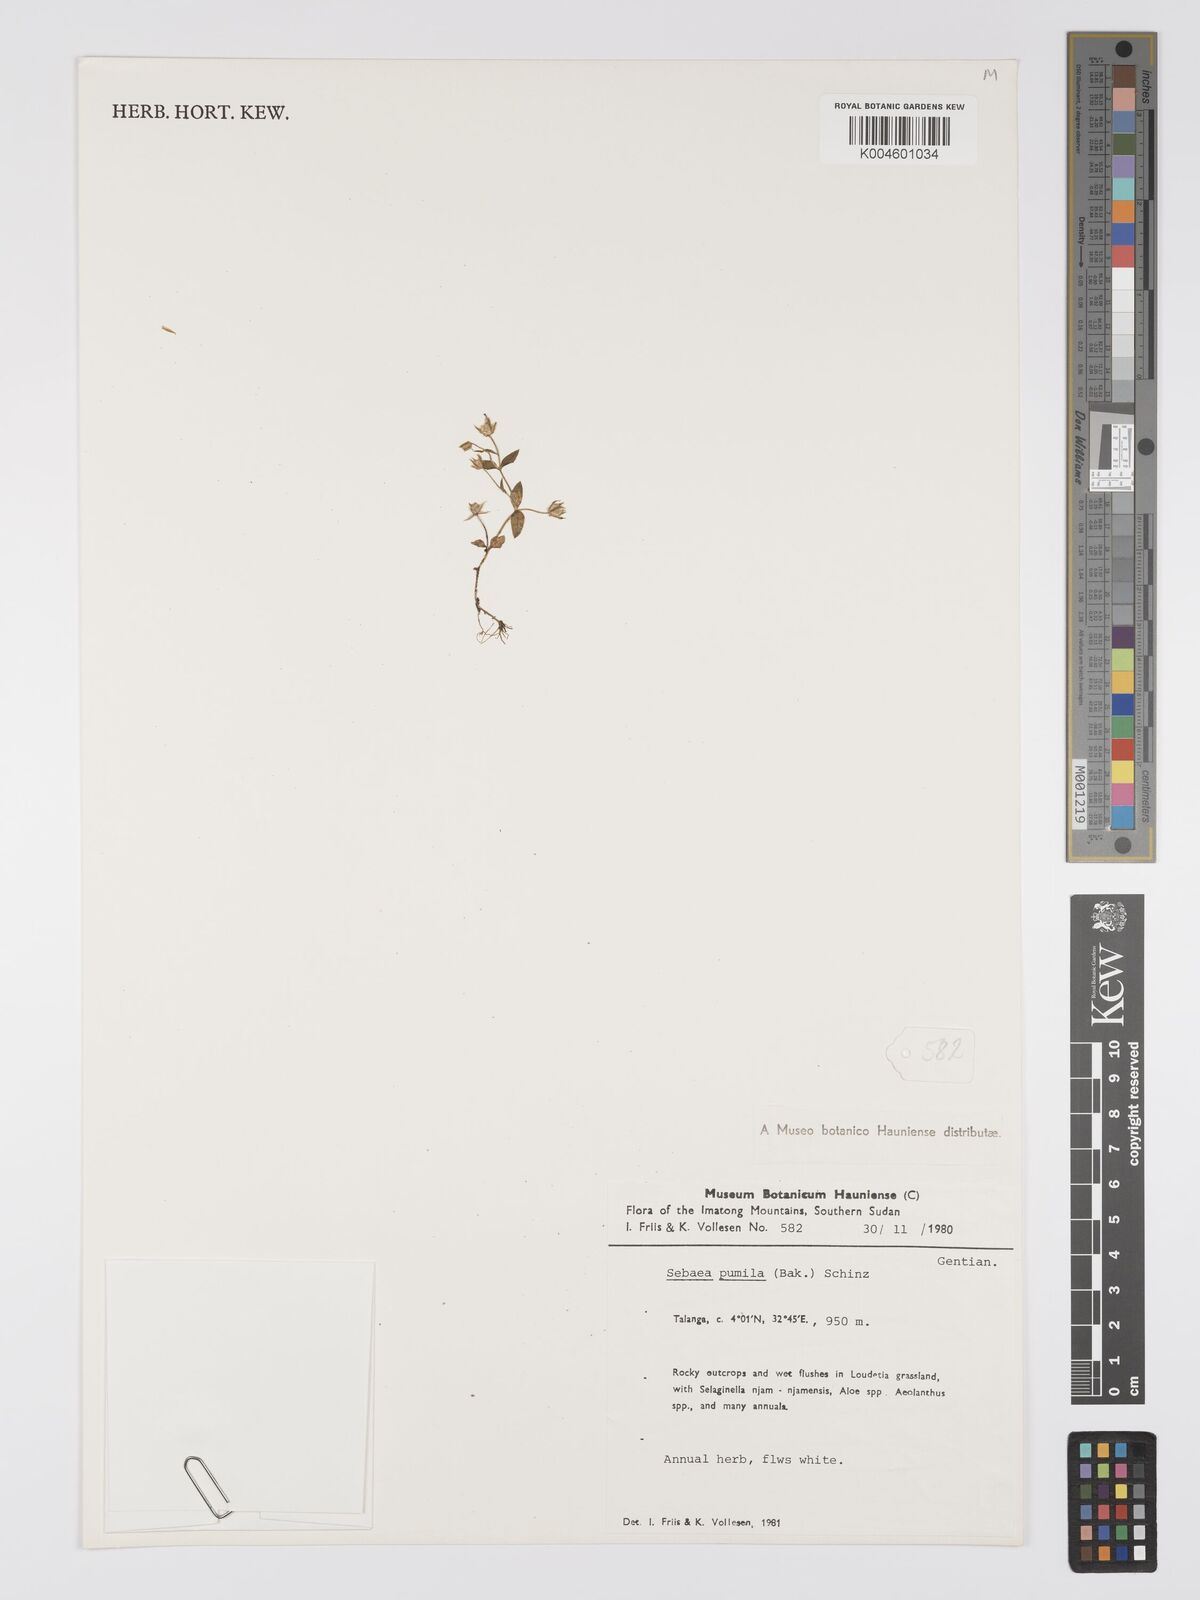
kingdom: Plantae
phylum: Tracheophyta
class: Magnoliopsida
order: Gentianales
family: Gentianaceae
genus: Exochaenium
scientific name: Exochaenium pumilum
